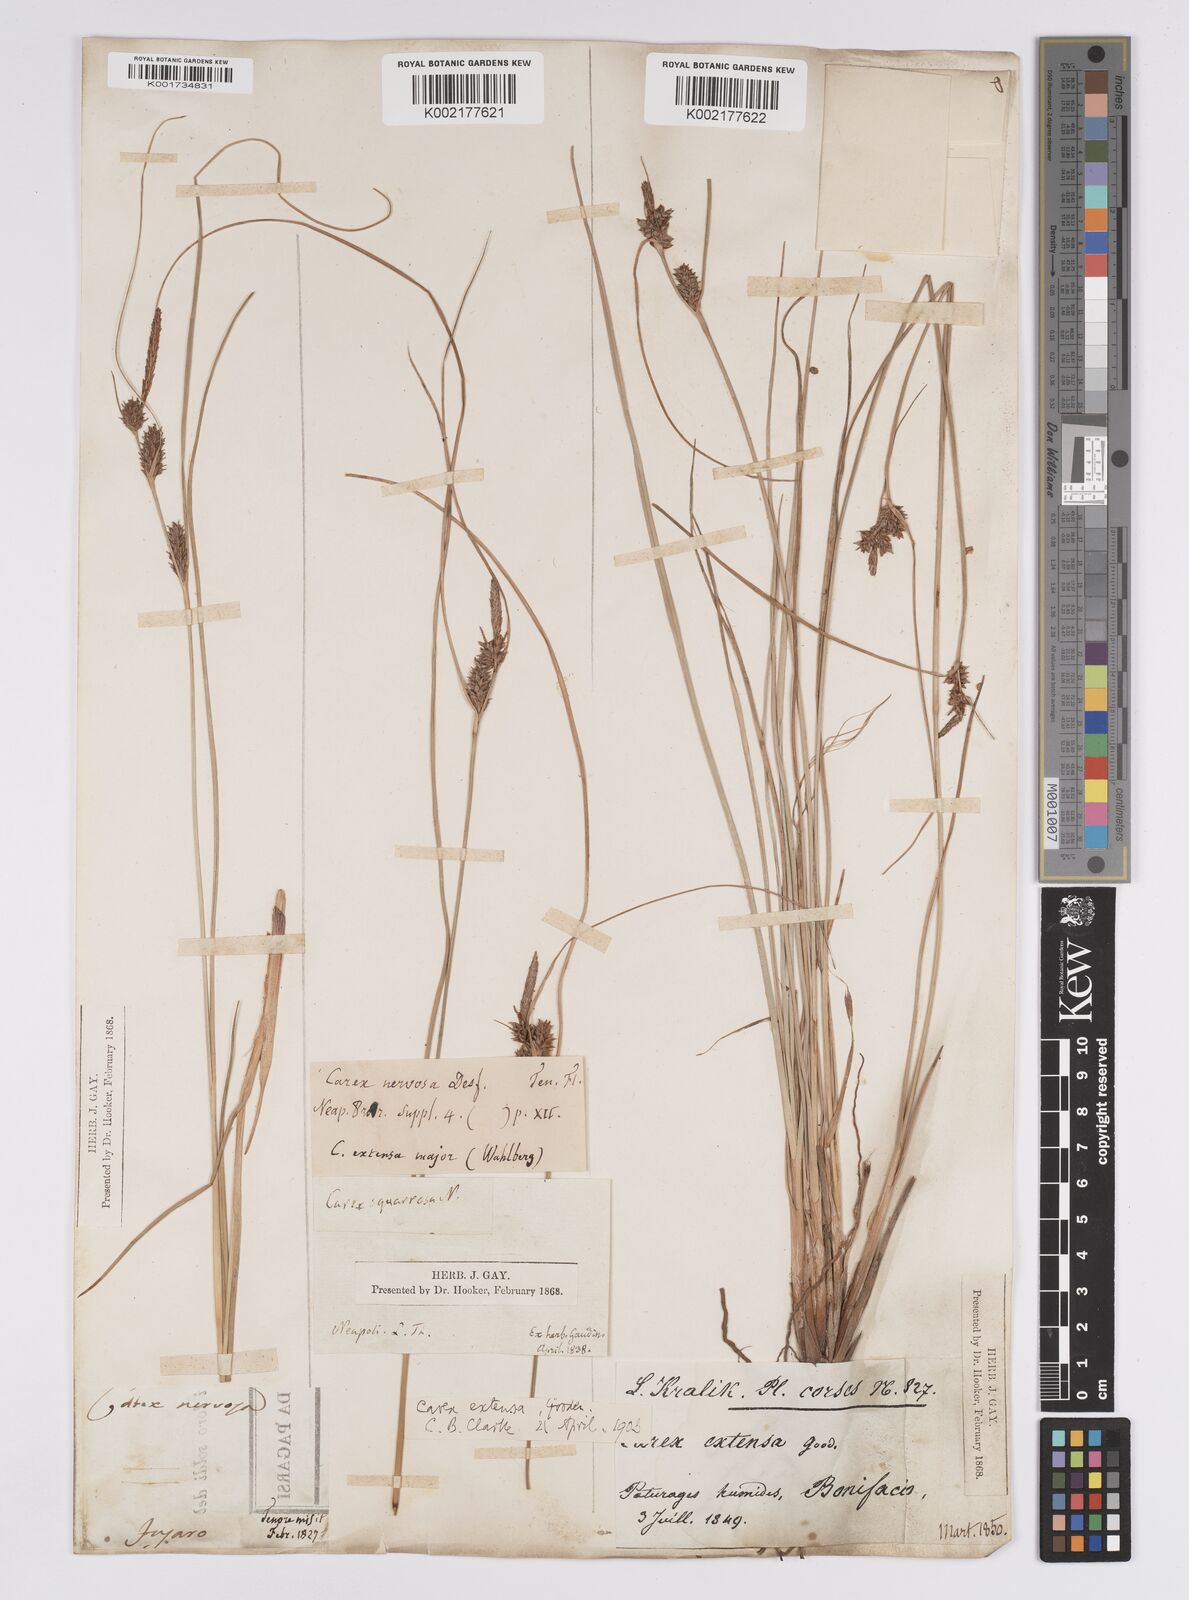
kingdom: Plantae
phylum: Tracheophyta
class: Liliopsida
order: Poales
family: Cyperaceae
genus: Carex
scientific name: Carex extensa
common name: Long-bracted sedge
